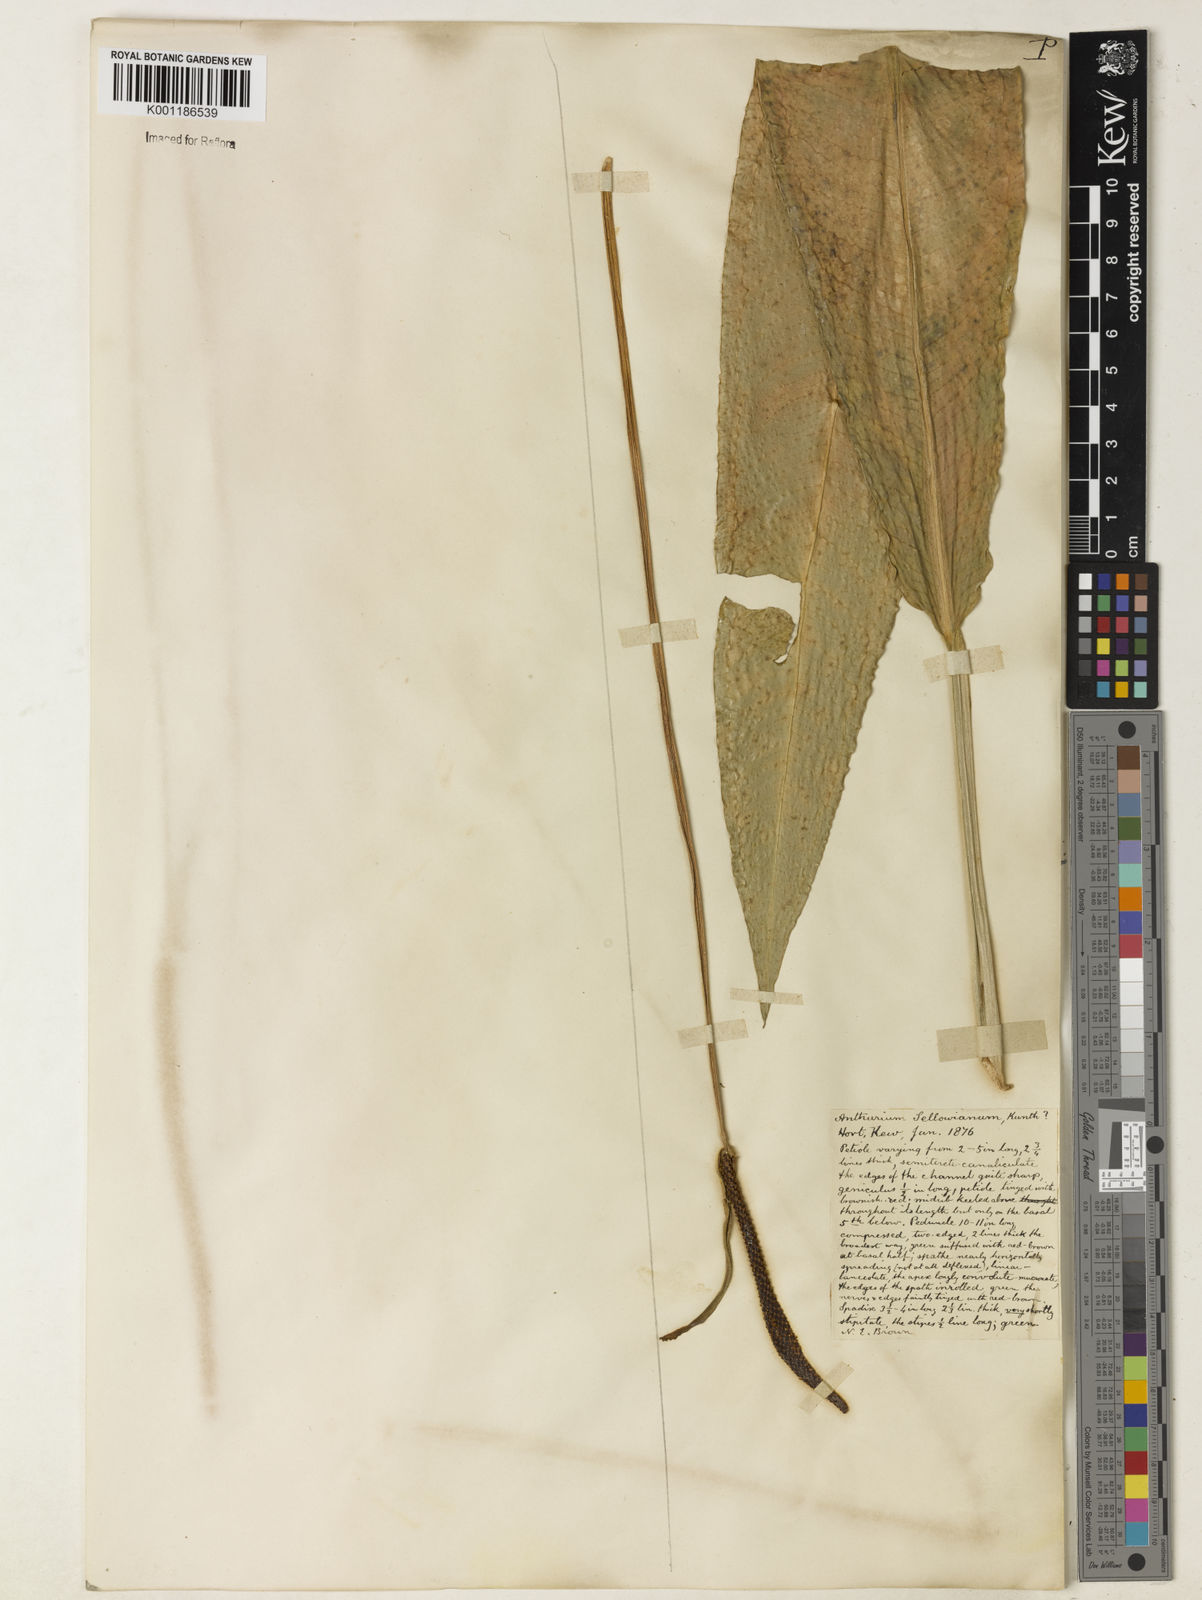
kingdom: Plantae
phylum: Tracheophyta
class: Liliopsida
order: Alismatales
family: Araceae
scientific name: Araceae
